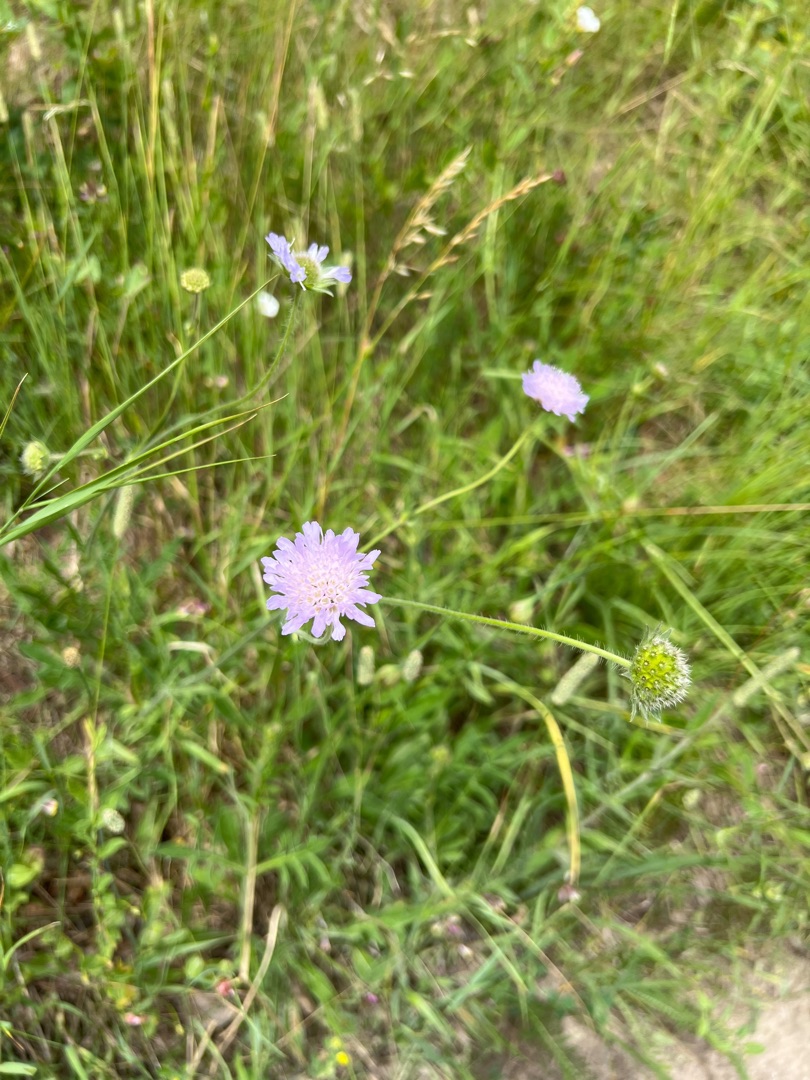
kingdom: Plantae
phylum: Tracheophyta
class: Magnoliopsida
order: Dipsacales
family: Caprifoliaceae
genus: Knautia
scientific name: Knautia arvensis
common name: Blåhat
